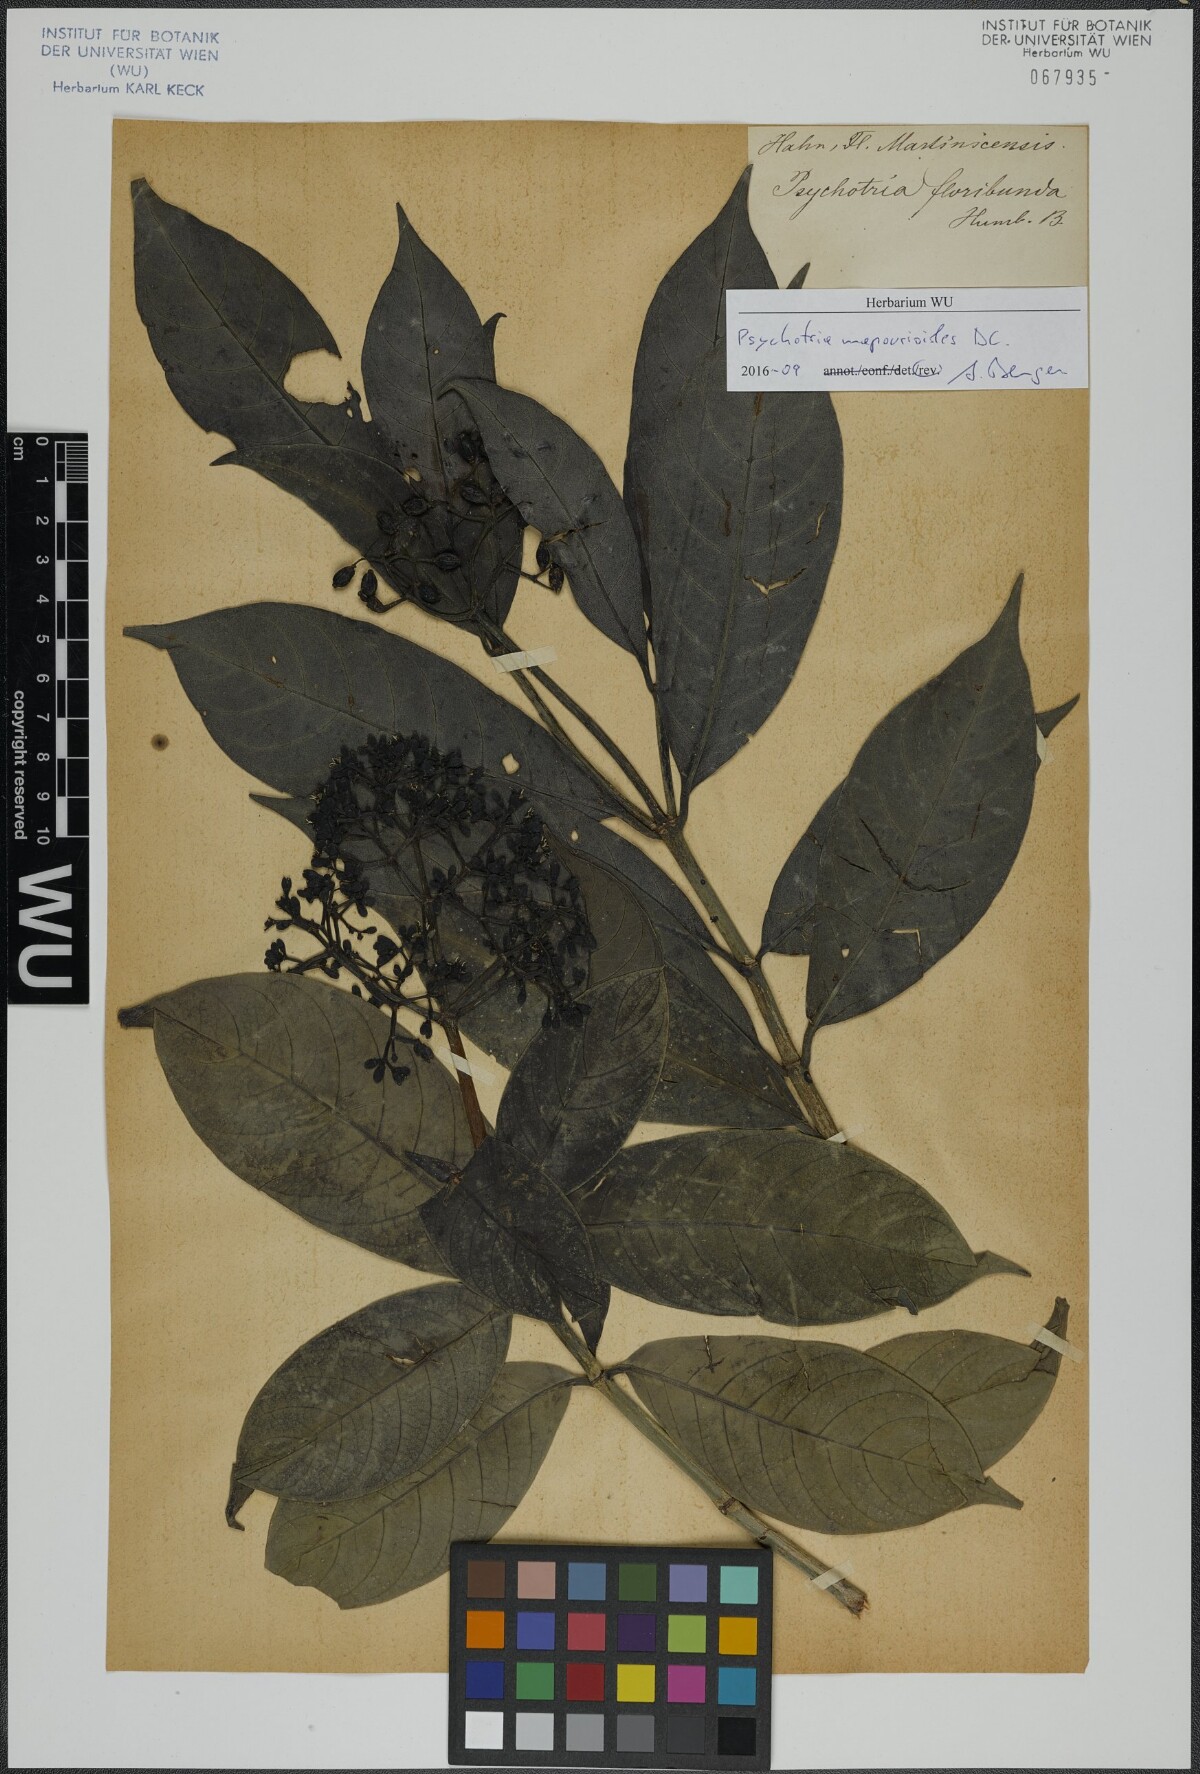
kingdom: Plantae
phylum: Tracheophyta
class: Magnoliopsida
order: Gentianales
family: Rubiaceae
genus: Psychotria
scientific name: Psychotria pedunculosa
